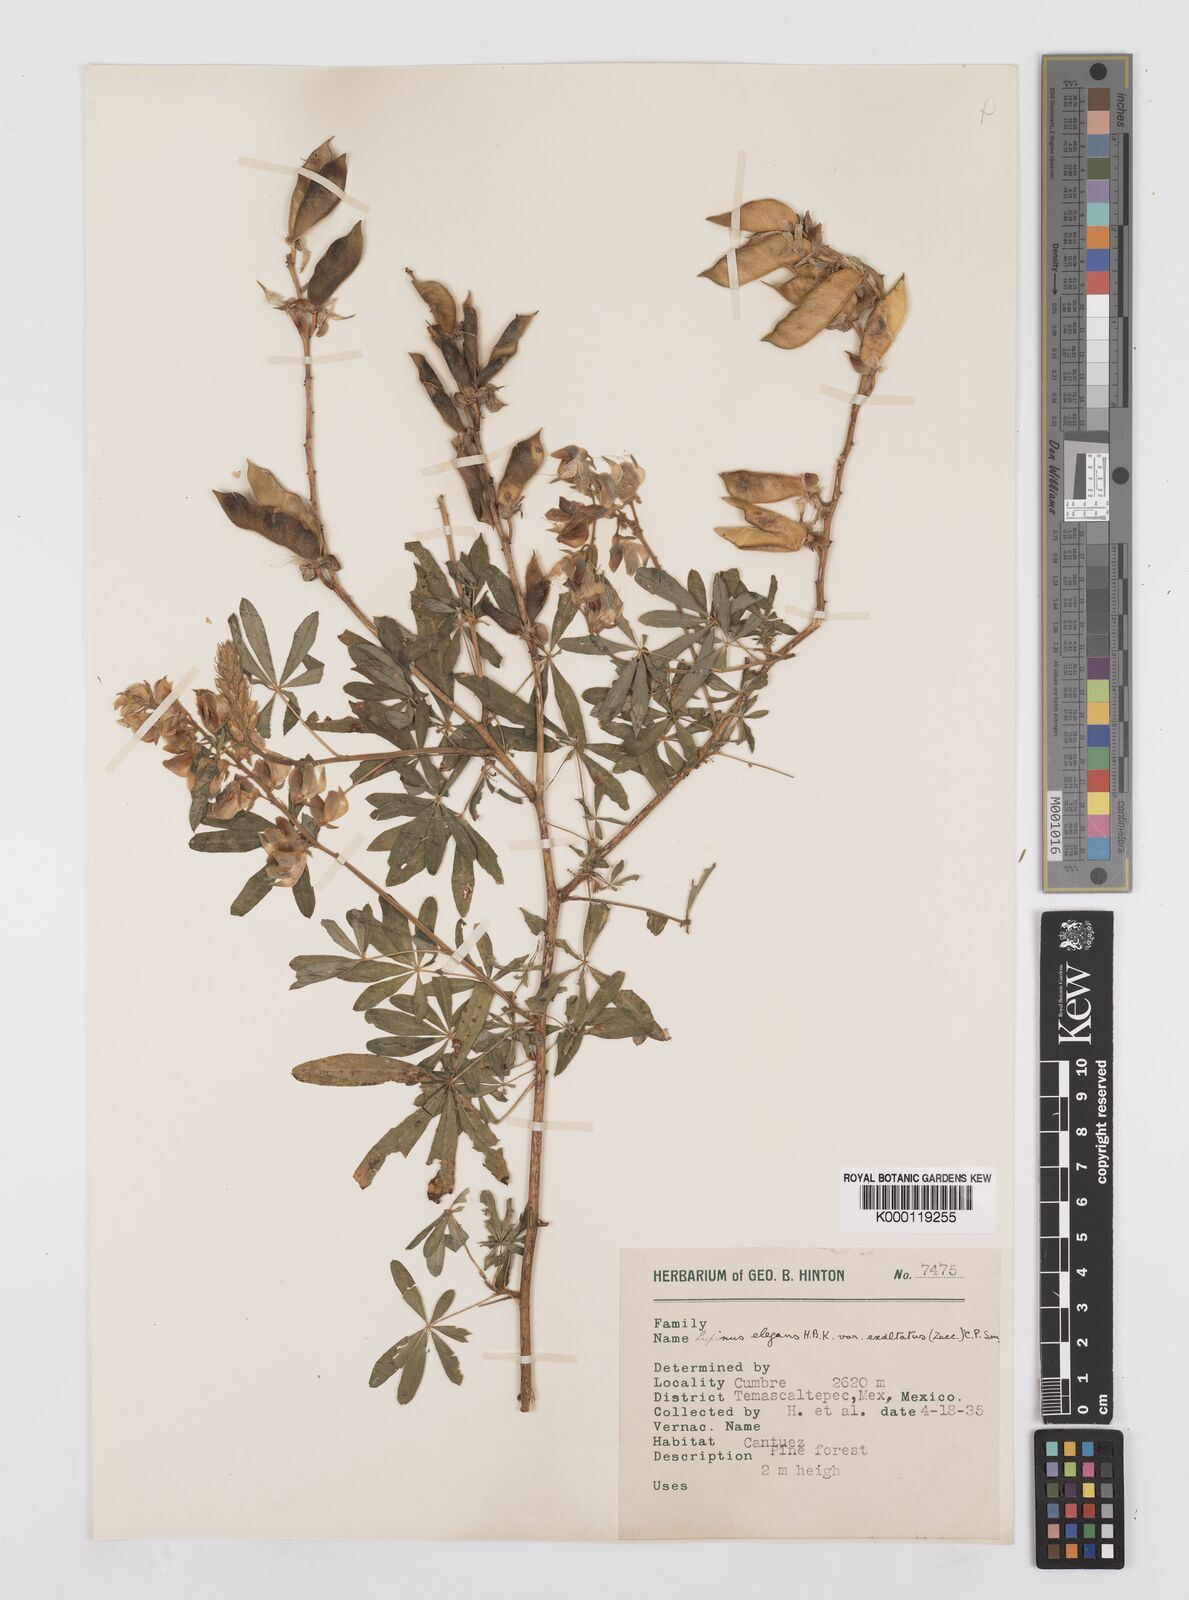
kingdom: Plantae
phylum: Tracheophyta
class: Magnoliopsida
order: Fabales
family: Fabaceae
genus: Lupinus
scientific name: Lupinus elegans
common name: Mexican lupine
